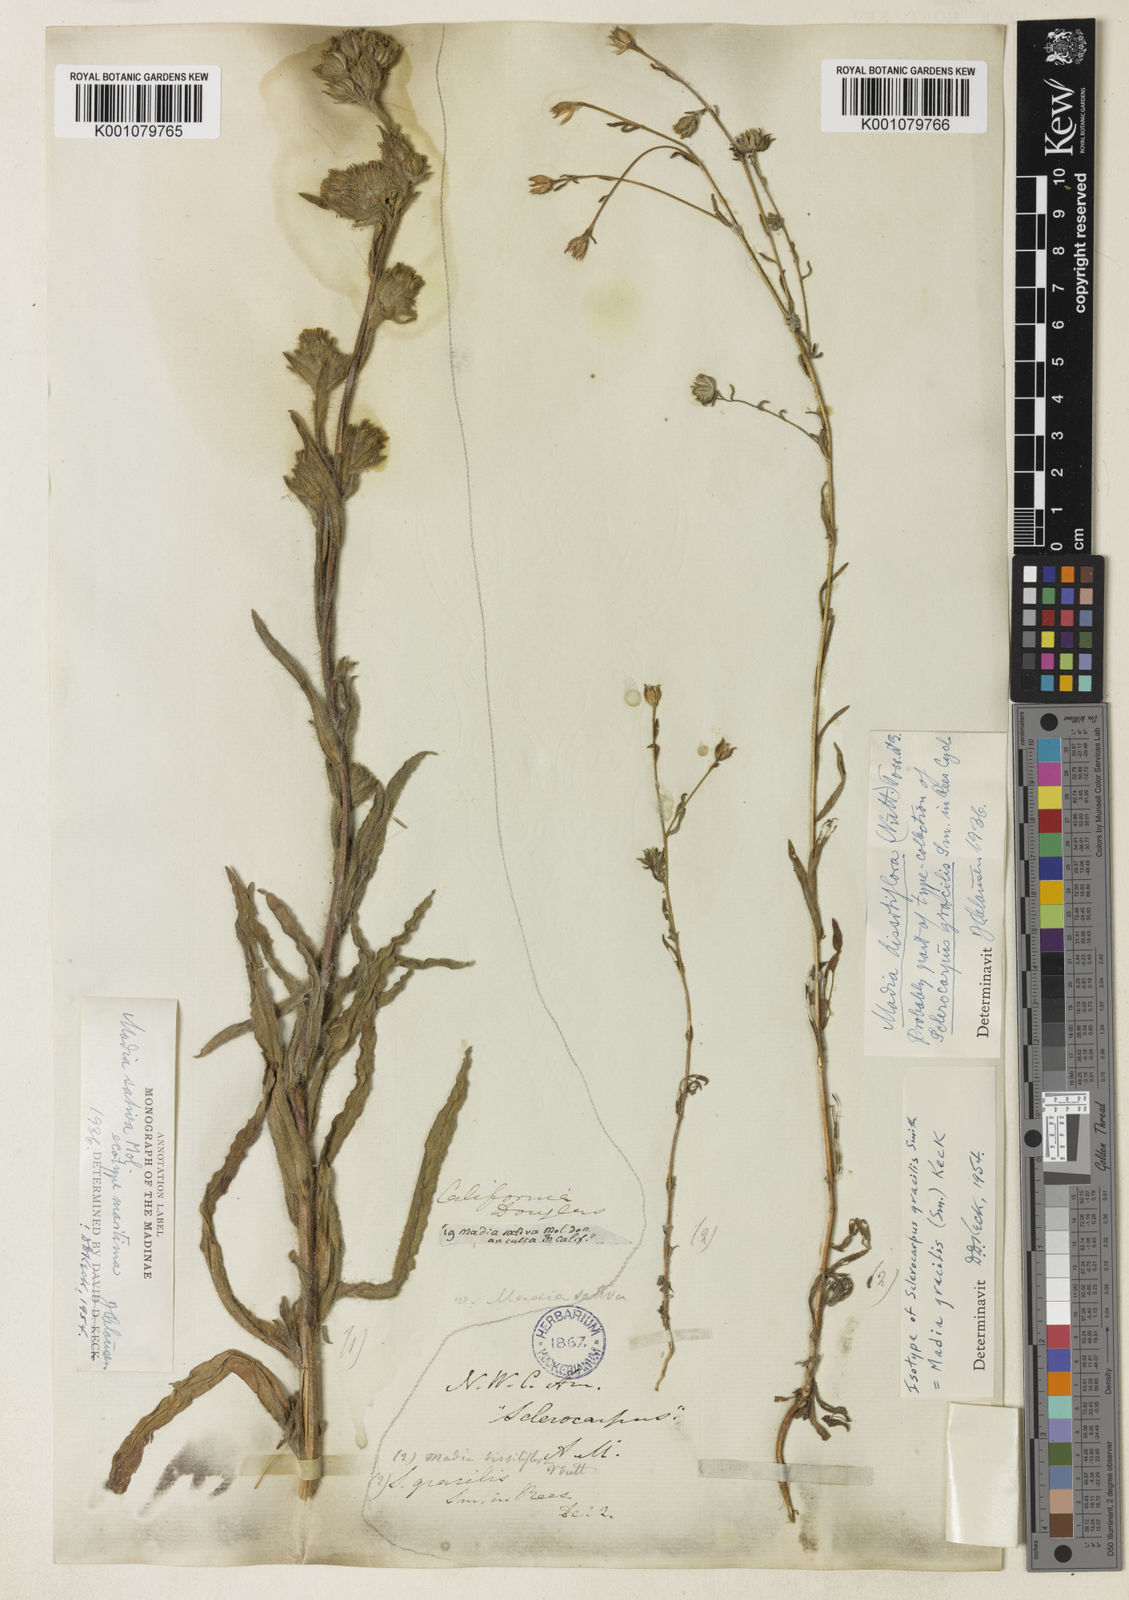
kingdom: Plantae
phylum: Tracheophyta
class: Magnoliopsida
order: Asterales
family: Asteraceae
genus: Madia
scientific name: Madia
